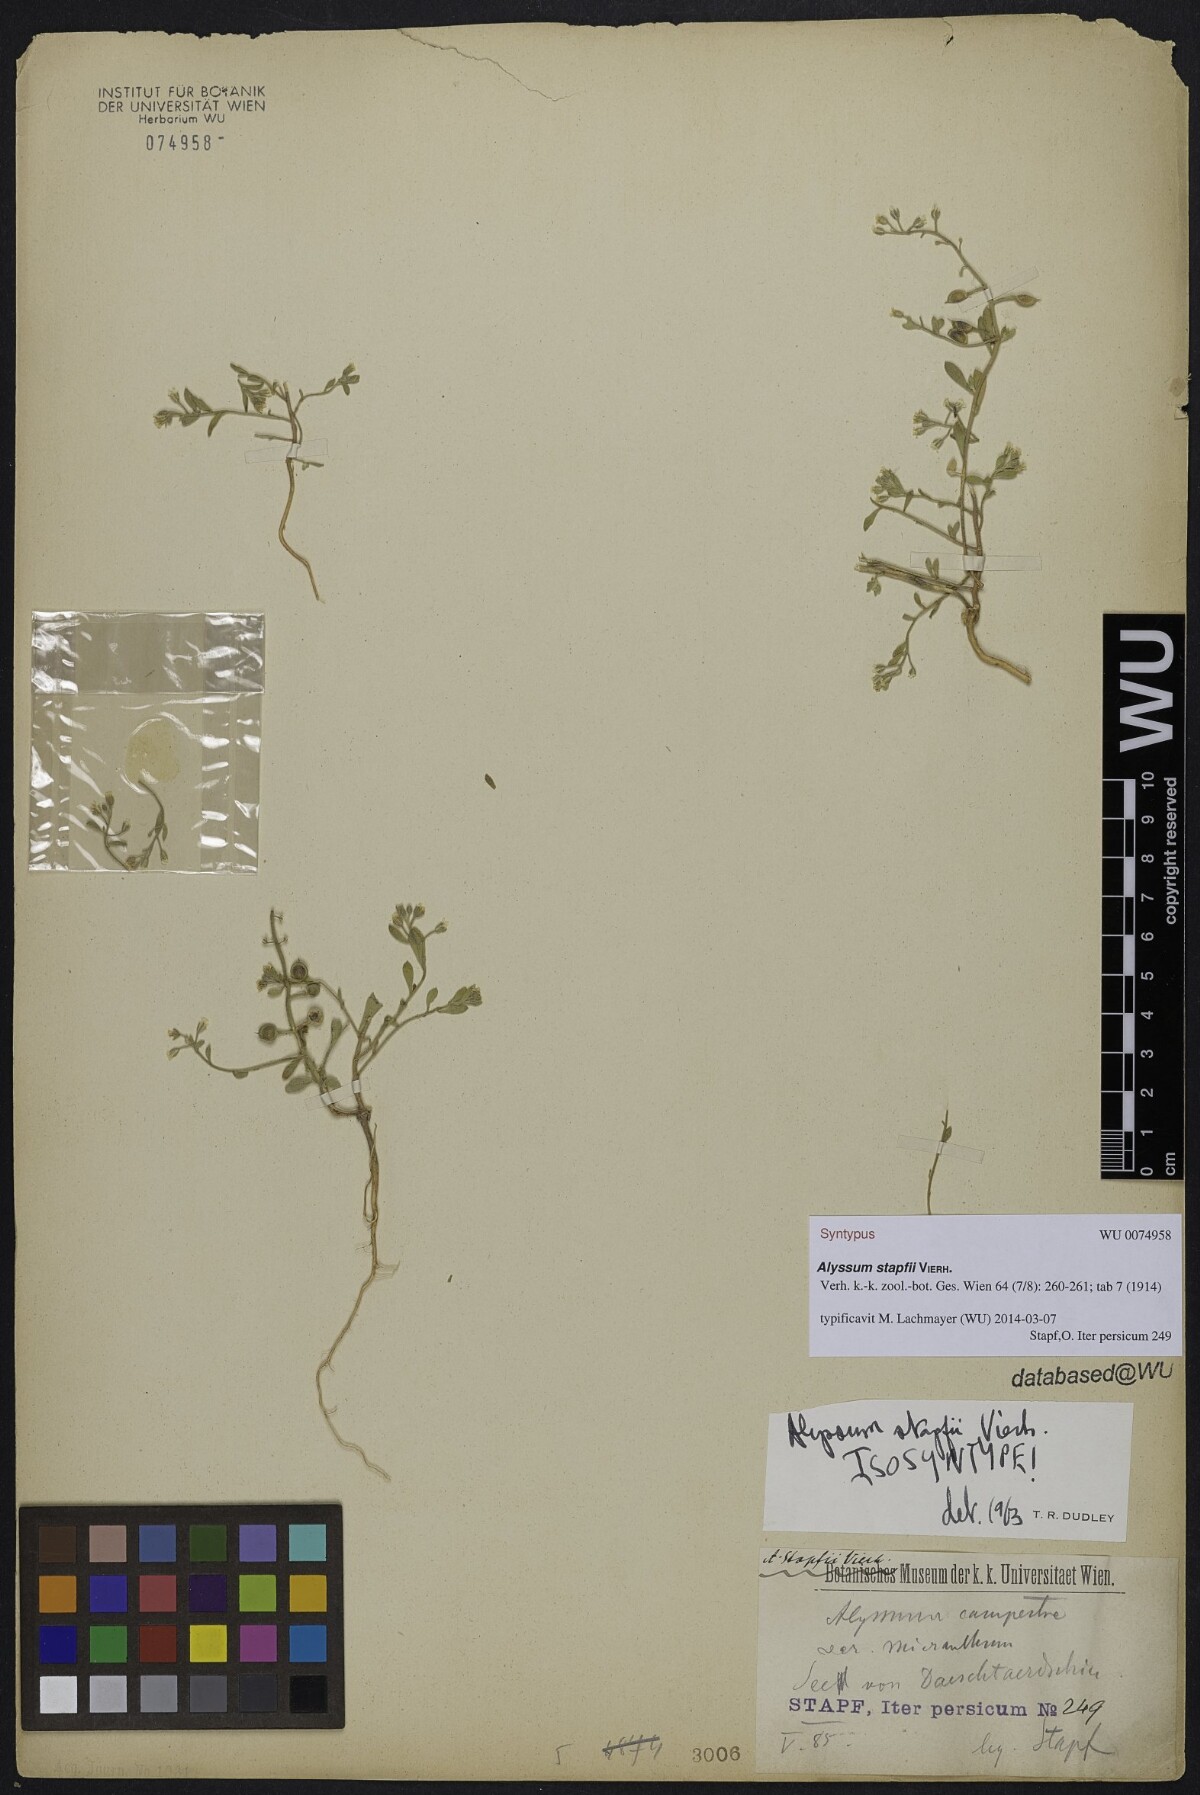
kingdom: Plantae
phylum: Tracheophyta
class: Magnoliopsida
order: Brassicales
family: Brassicaceae
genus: Alyssum
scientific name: Alyssum stapfii
